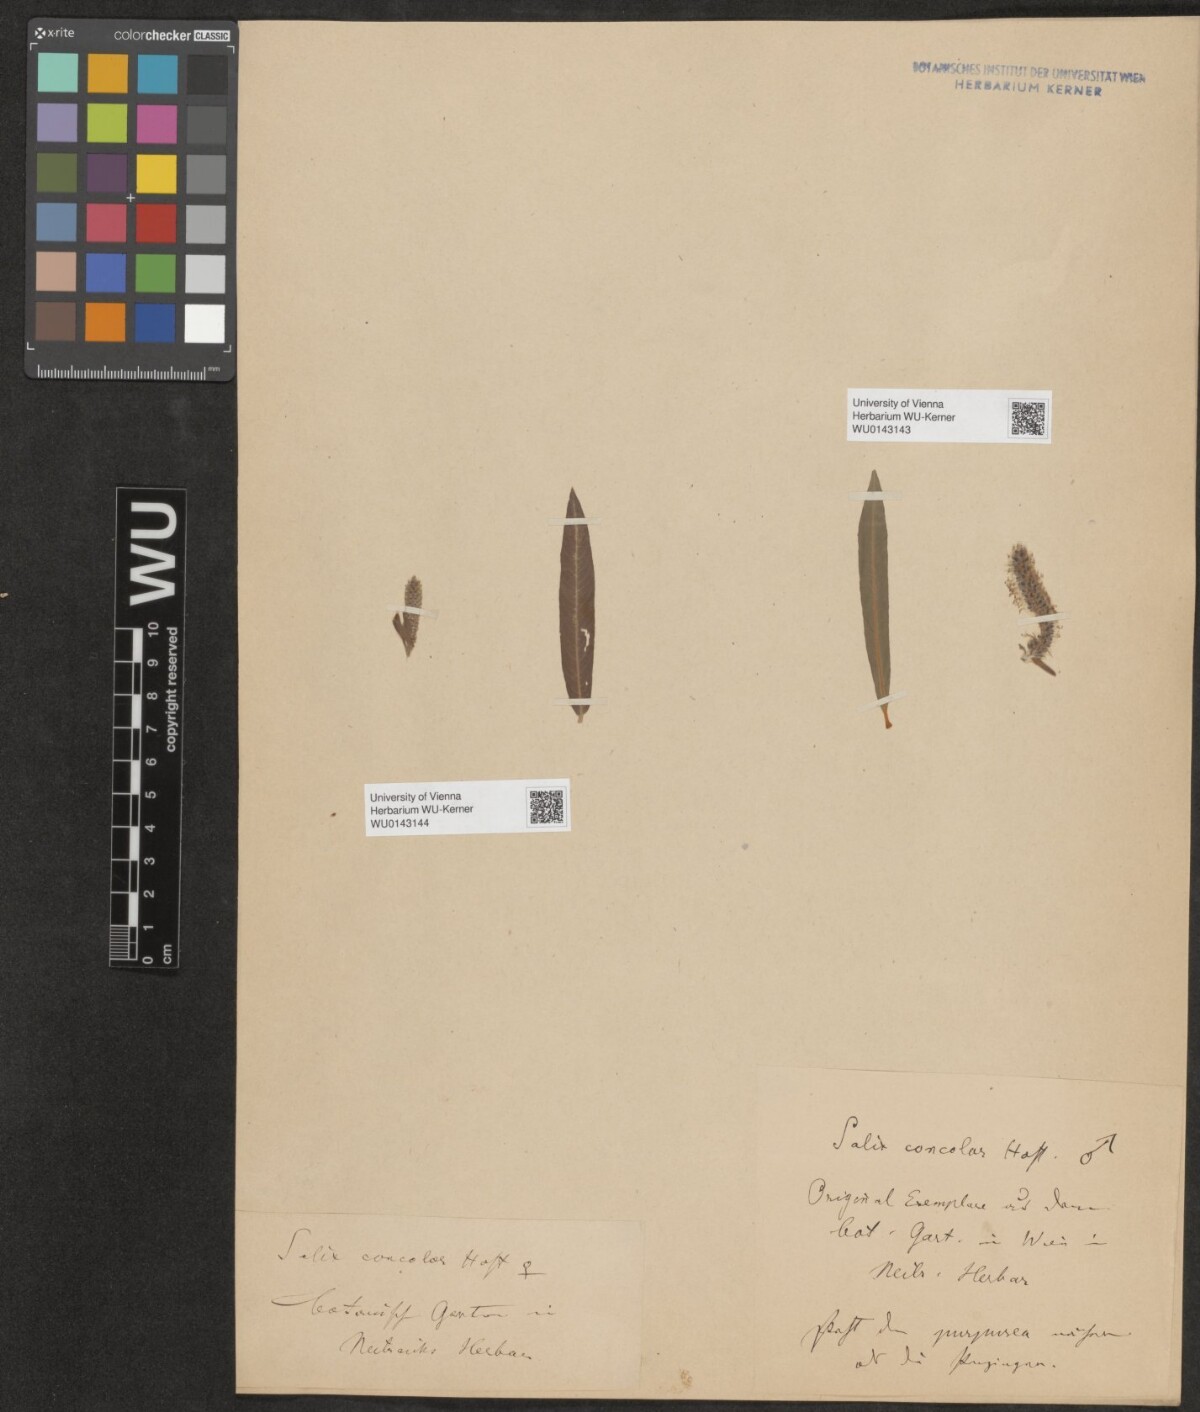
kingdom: Plantae
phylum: Tracheophyta
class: Magnoliopsida
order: Malpighiales
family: Salicaceae
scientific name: Salicaceae
